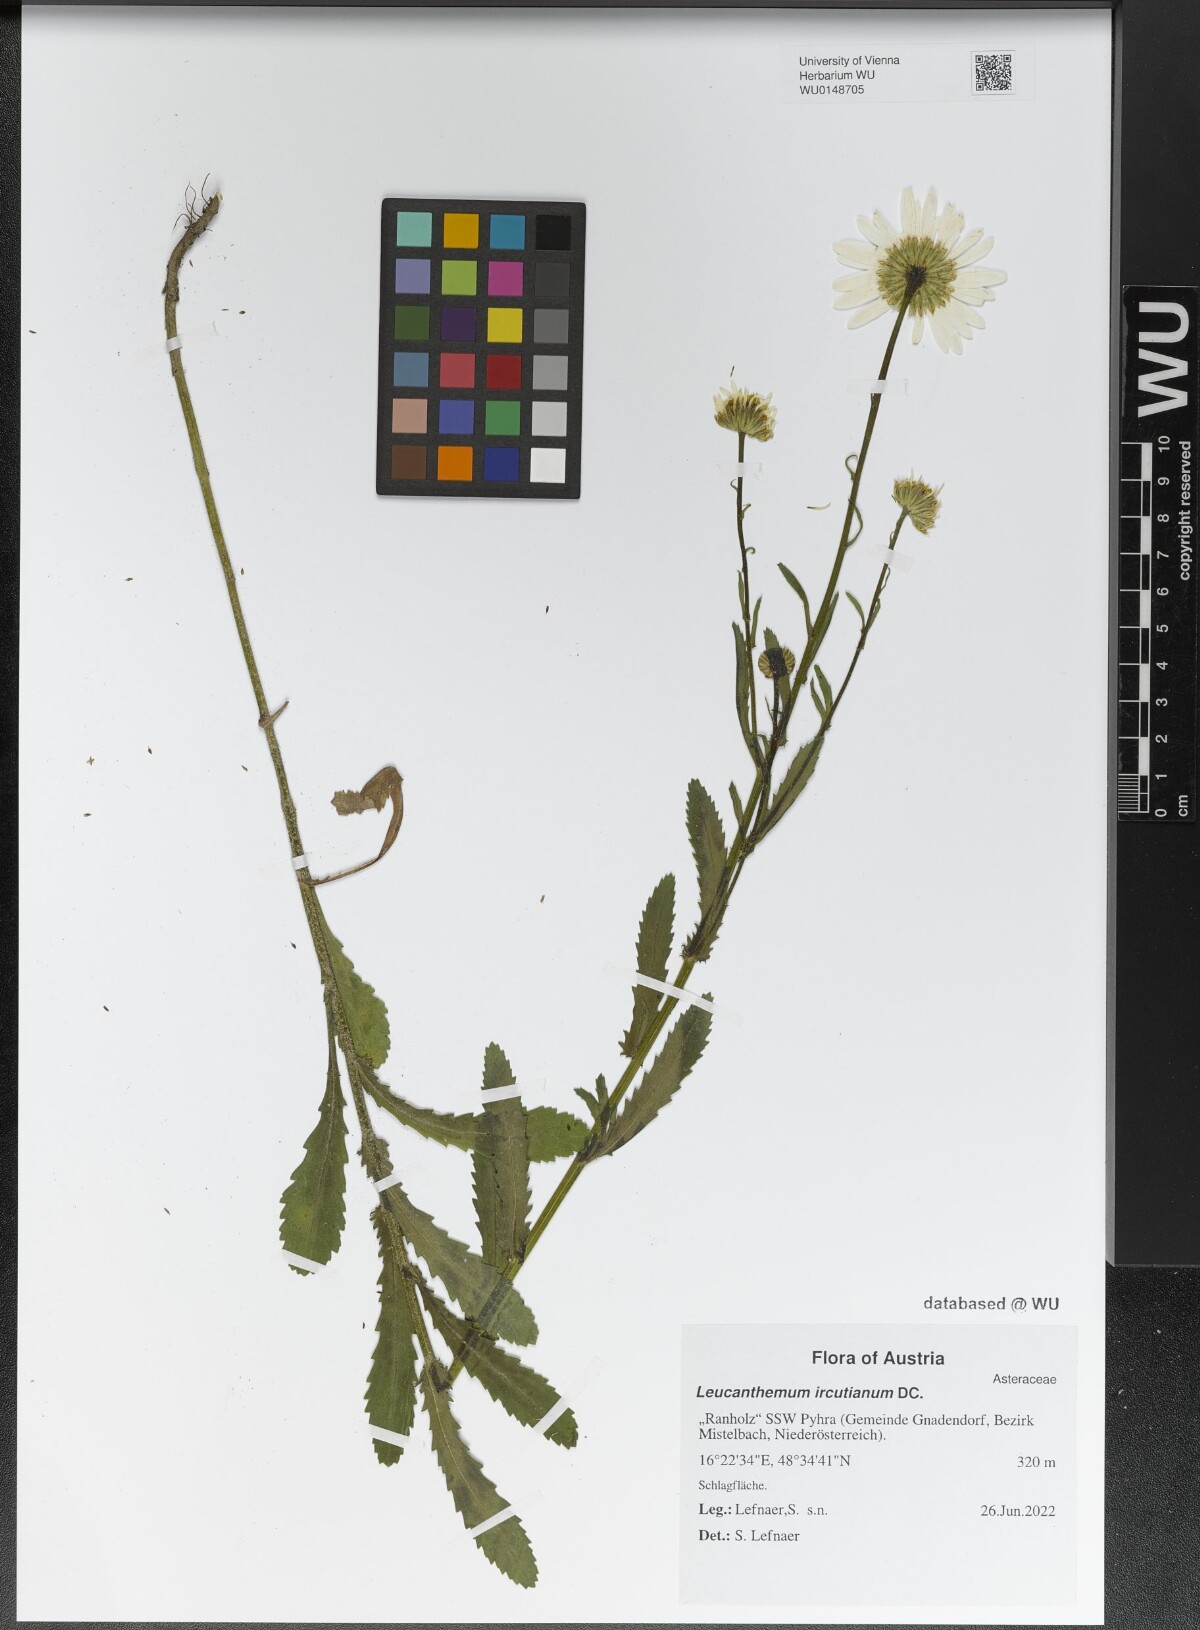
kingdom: Plantae
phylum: Tracheophyta
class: Magnoliopsida
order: Asterales
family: Asteraceae
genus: Leucanthemum
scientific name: Leucanthemum ircutianum
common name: Daisy
